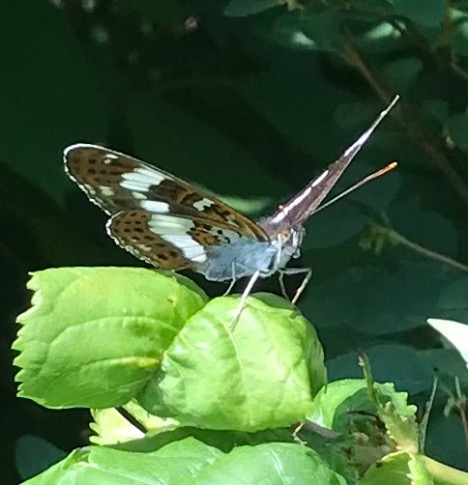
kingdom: Animalia
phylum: Arthropoda
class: Insecta
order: Lepidoptera
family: Nymphalidae
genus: Ladoga
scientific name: Ladoga camilla
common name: Hvid admiral
